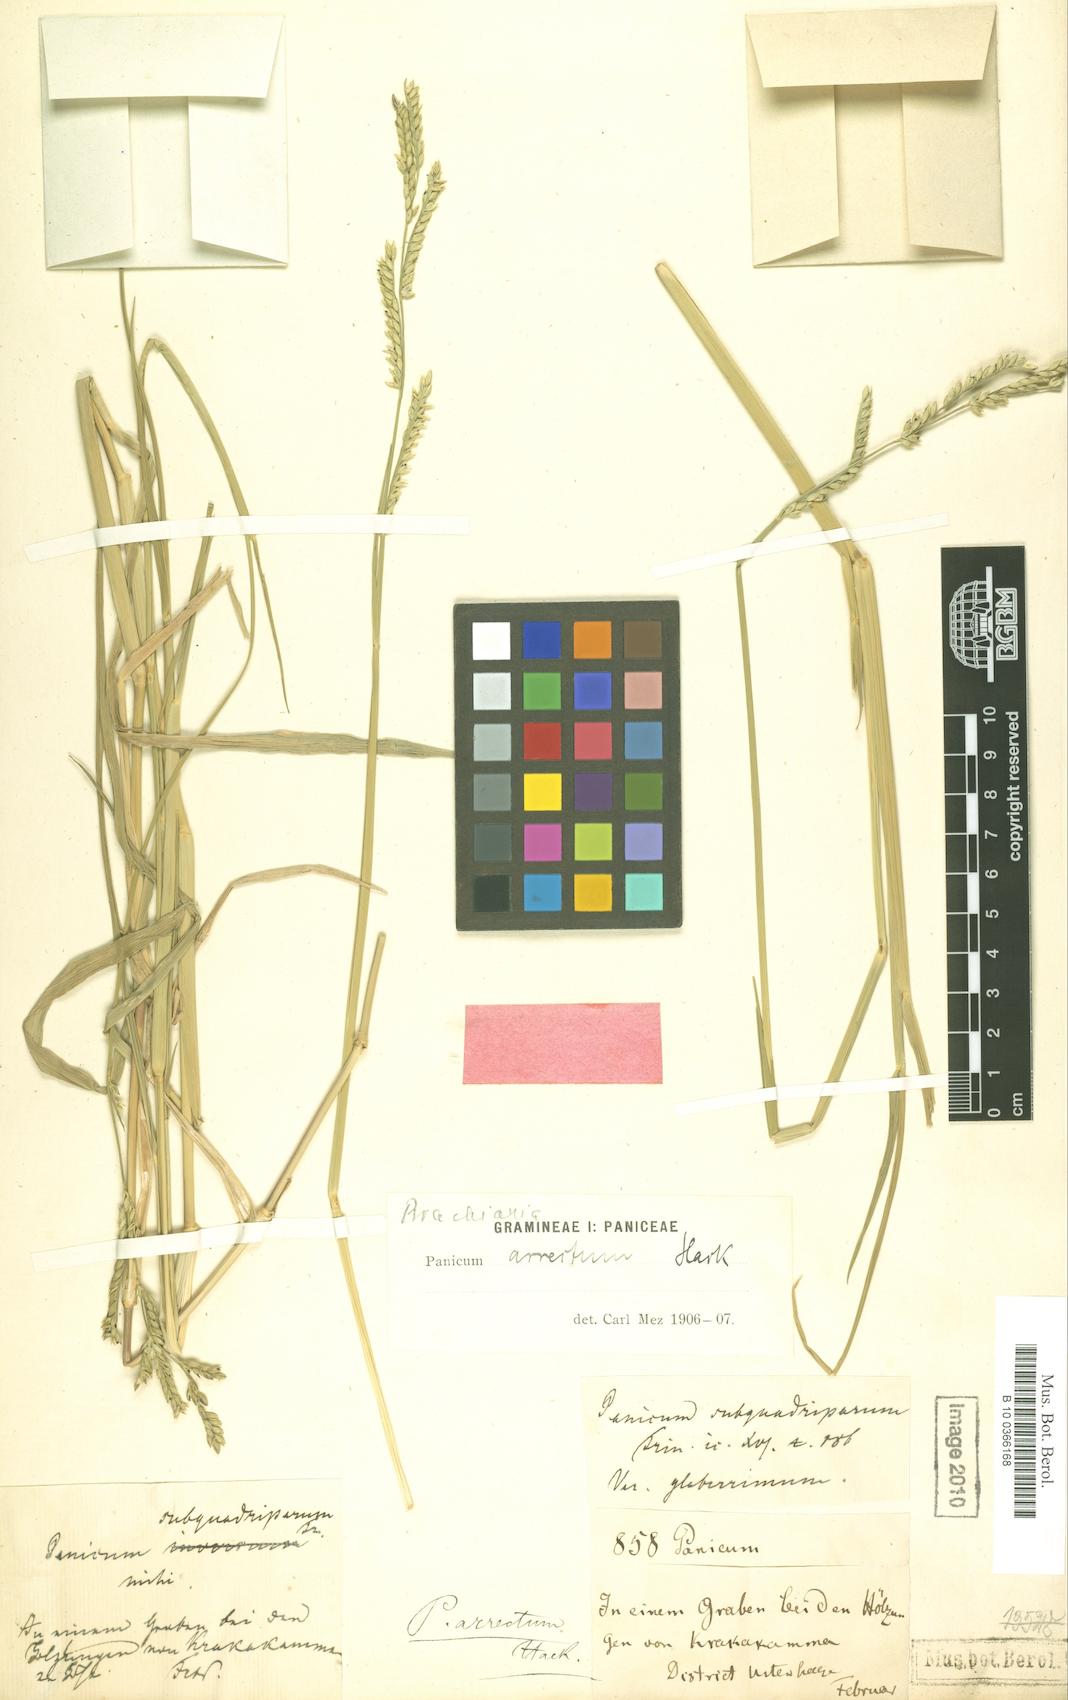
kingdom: Plantae
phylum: Tracheophyta
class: Liliopsida
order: Poales
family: Poaceae
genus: Urochloa
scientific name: Urochloa arrecta
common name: African signalgrass
